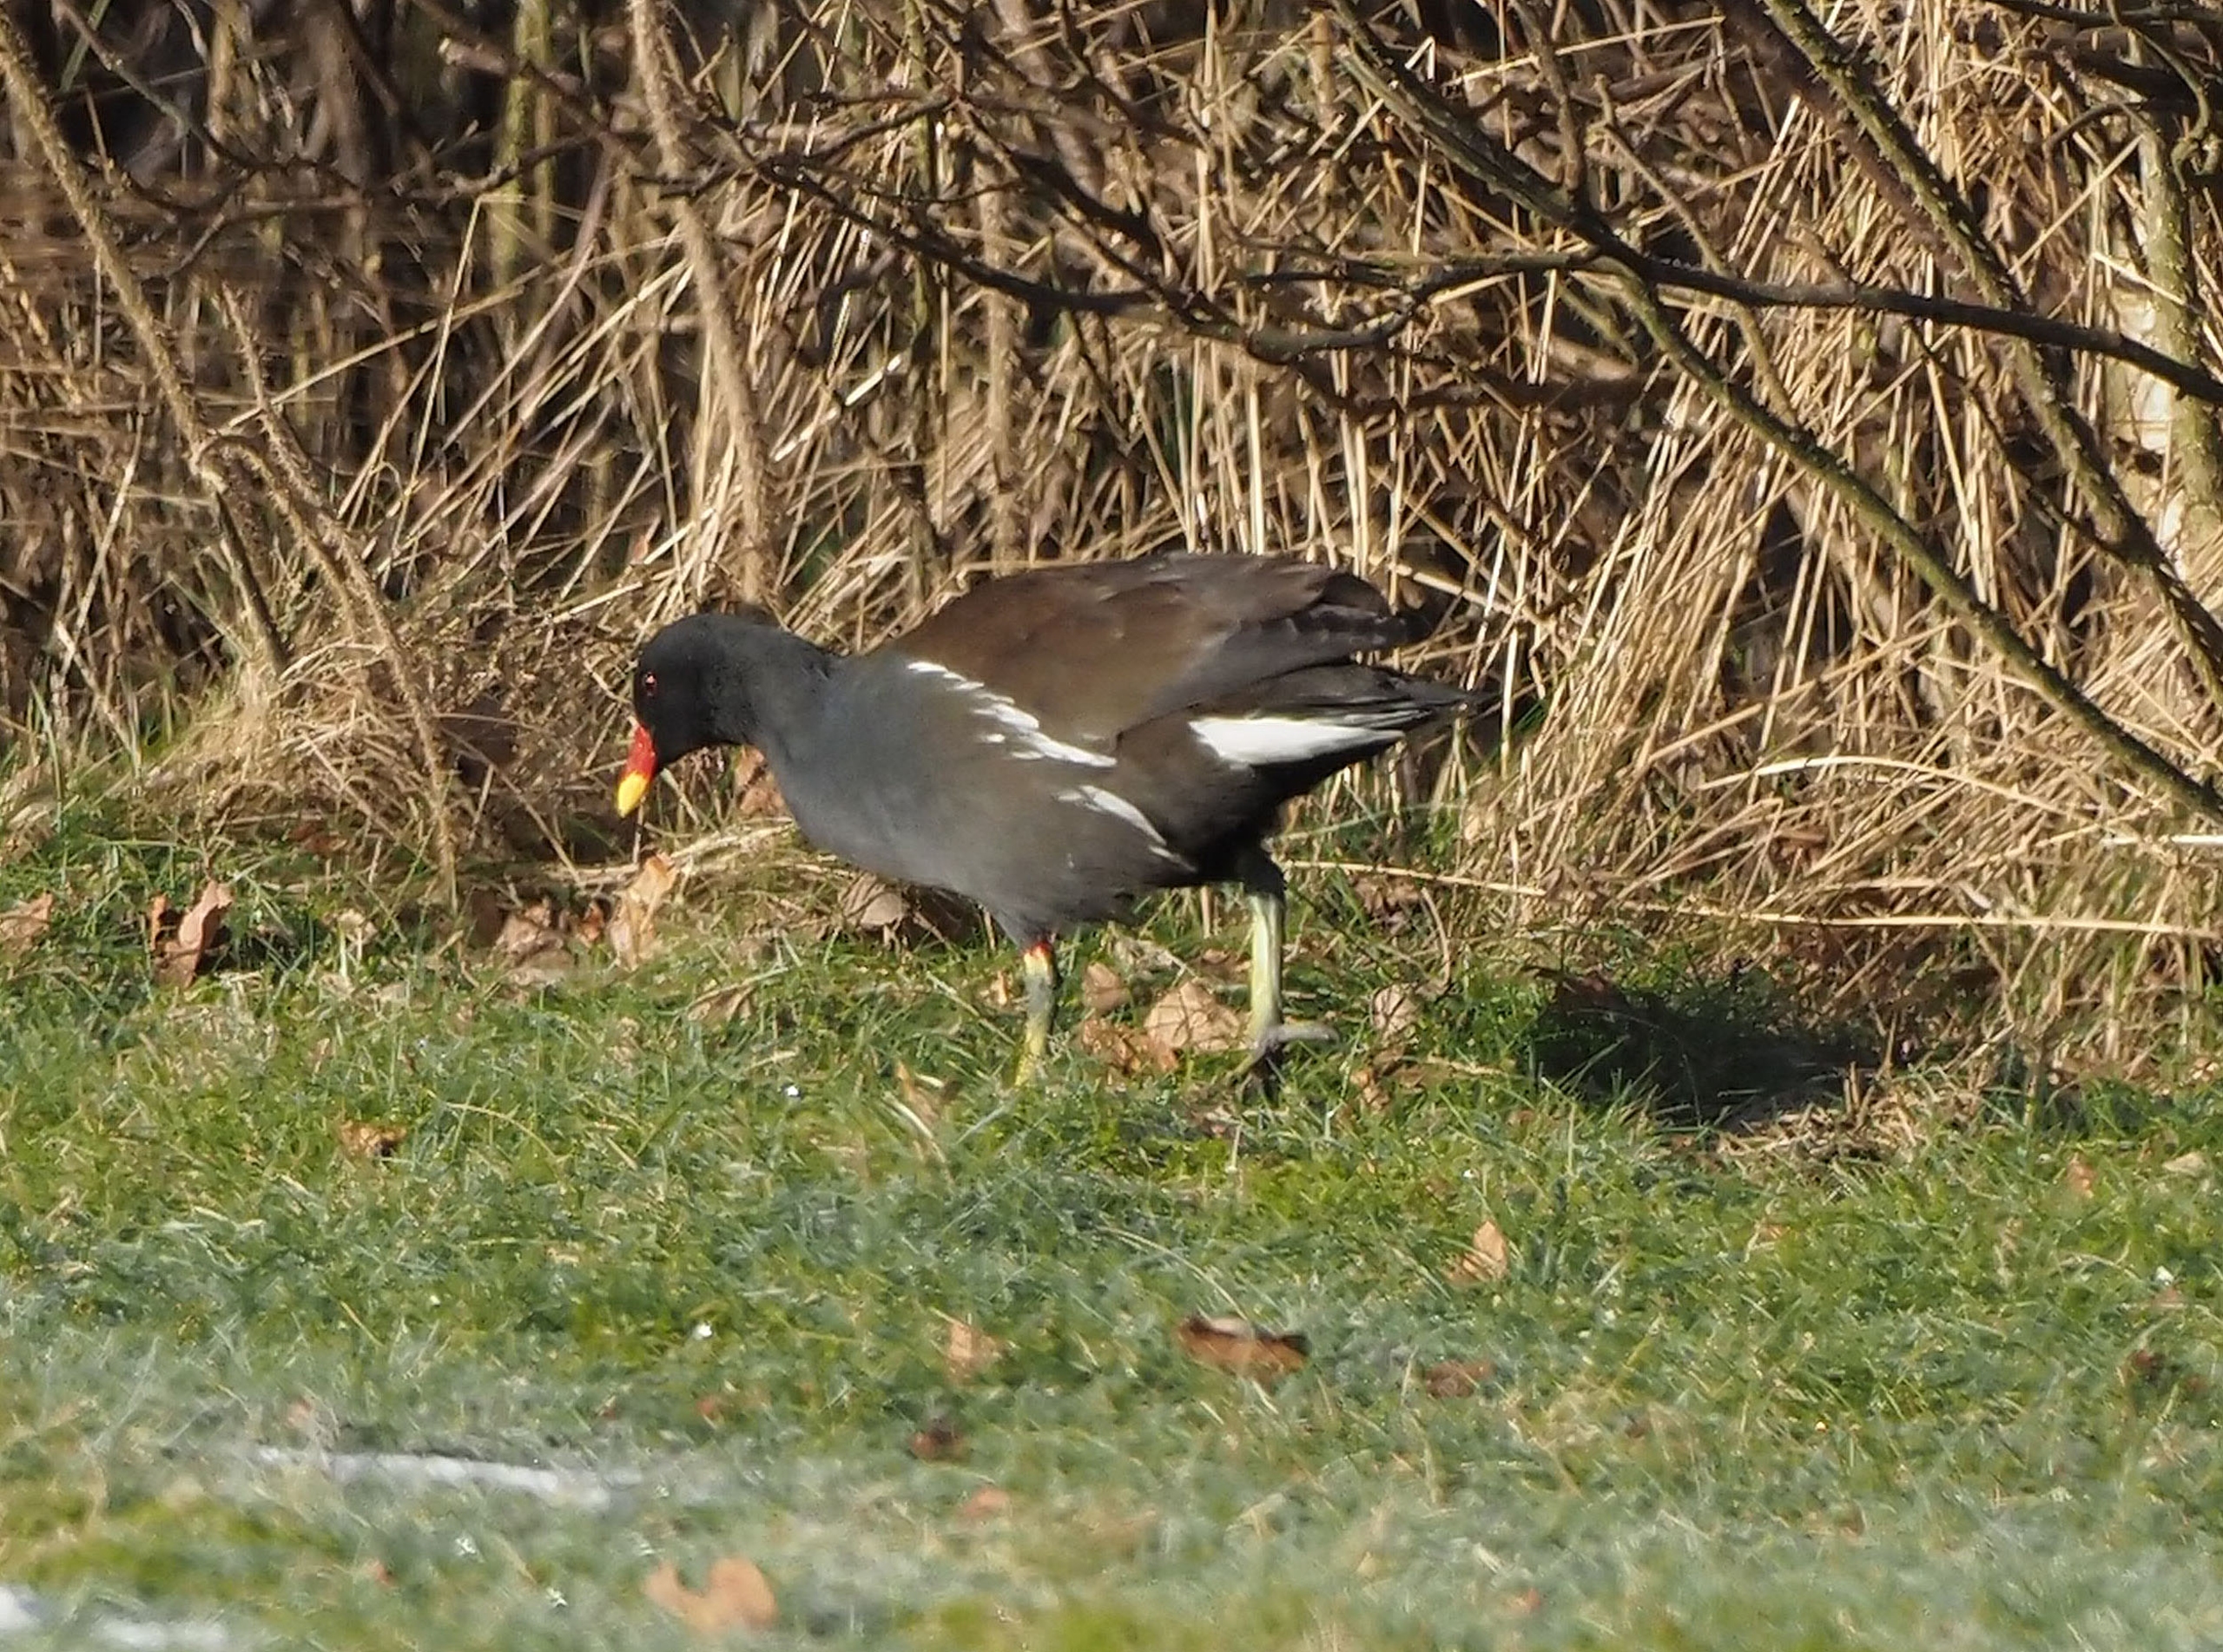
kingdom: Animalia
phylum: Chordata
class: Aves
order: Gruiformes
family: Rallidae
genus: Gallinula
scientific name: Gallinula chloropus
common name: Grønbenet rørhøne
